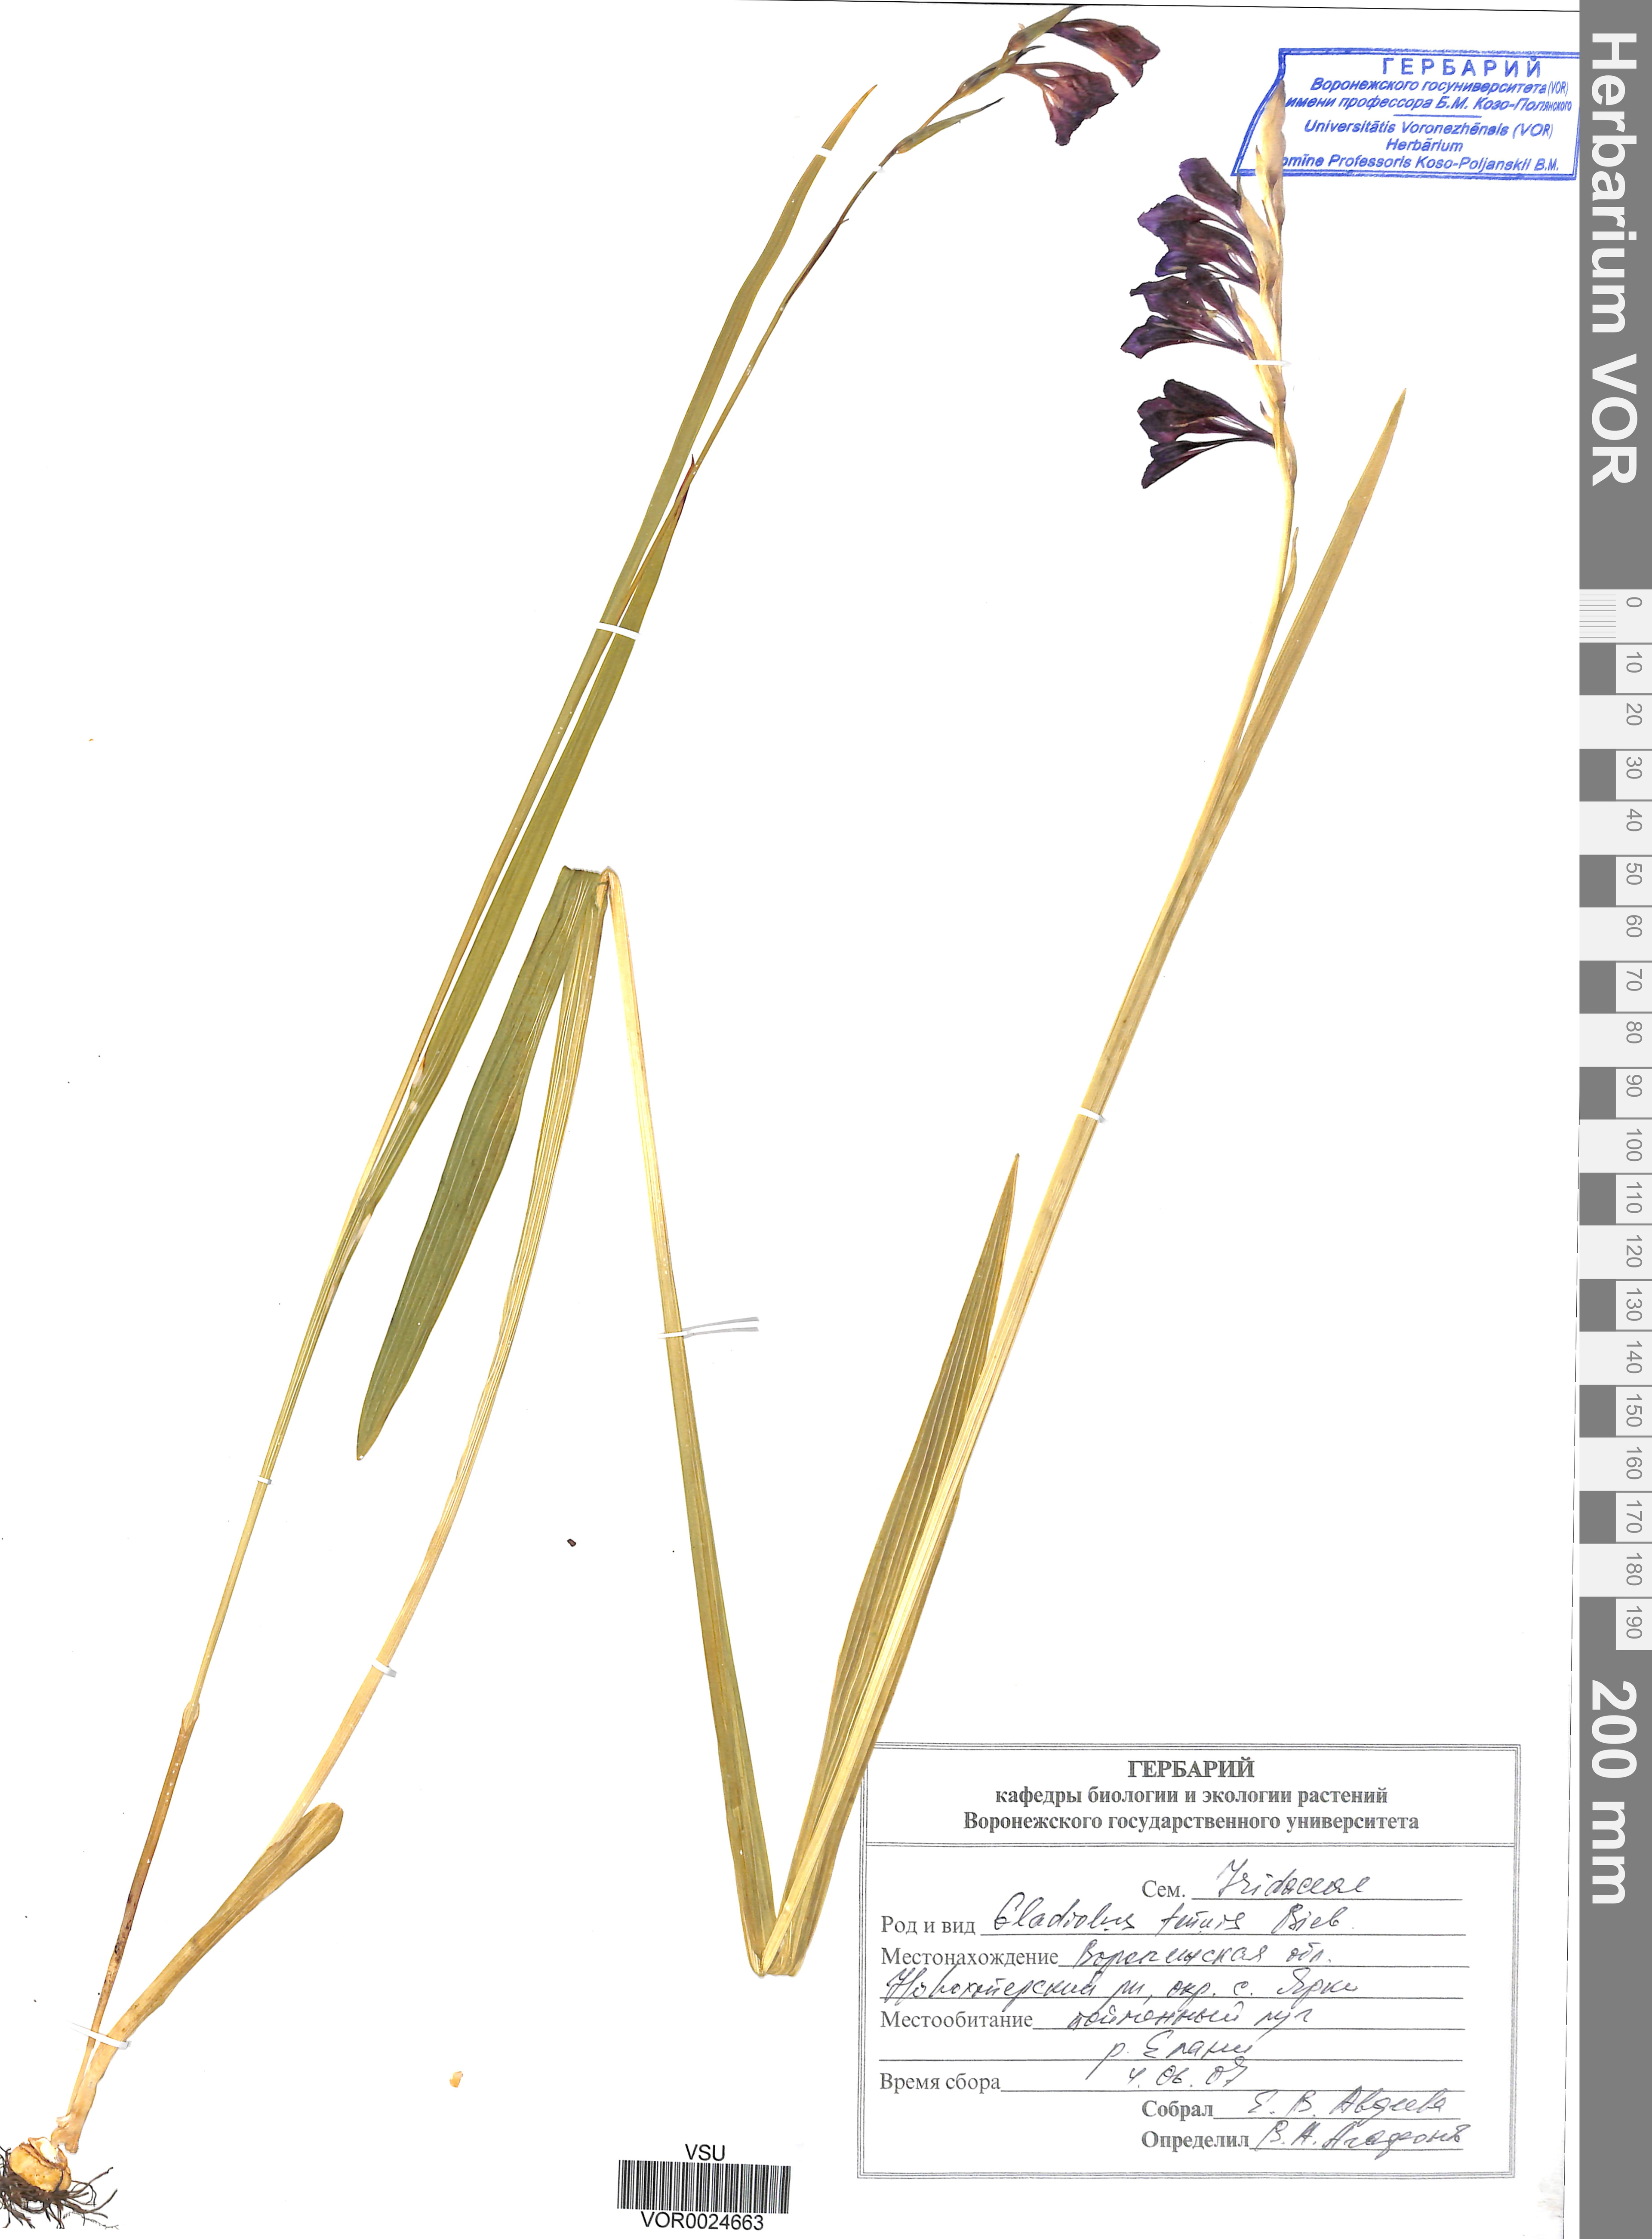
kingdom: Plantae
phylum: Tracheophyta
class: Liliopsida
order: Asparagales
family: Iridaceae
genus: Gladiolus
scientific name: Gladiolus tenuis
